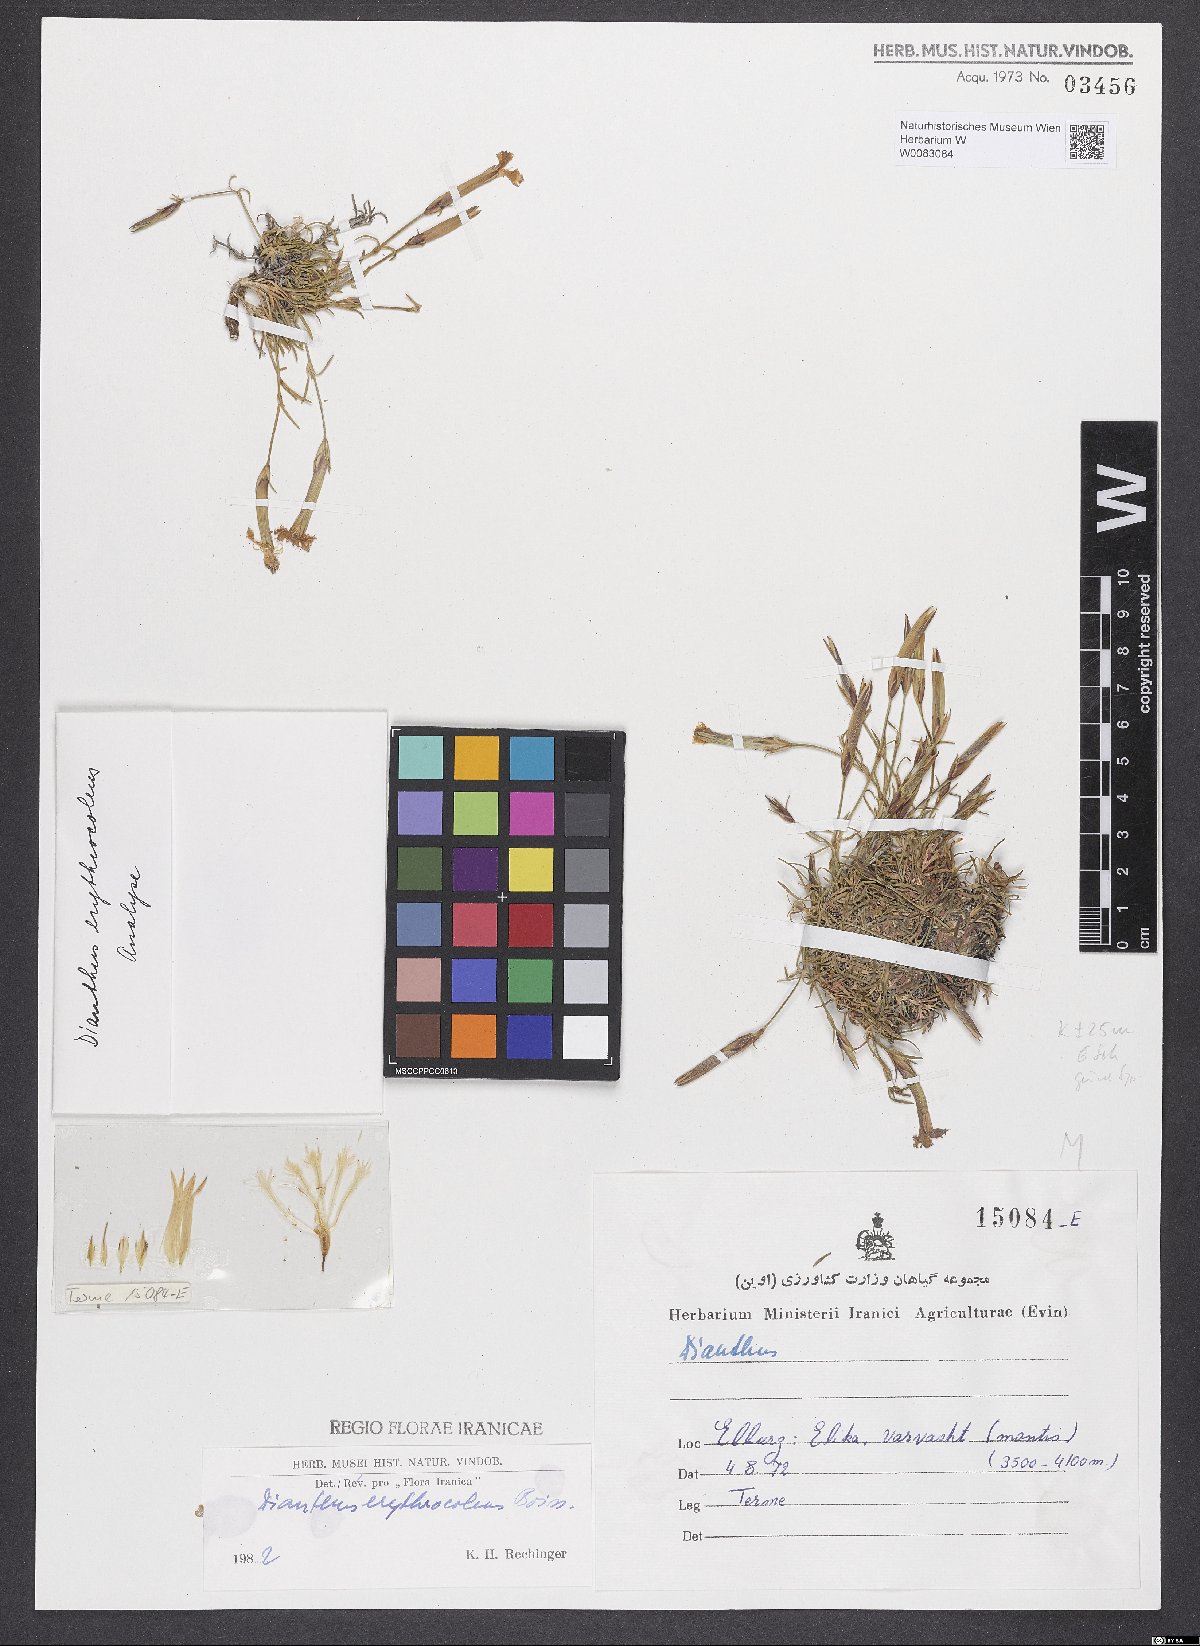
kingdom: Plantae
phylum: Tracheophyta
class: Magnoliopsida
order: Caryophyllales
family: Caryophyllaceae
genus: Dianthus
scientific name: Dianthus erythrocoleus
